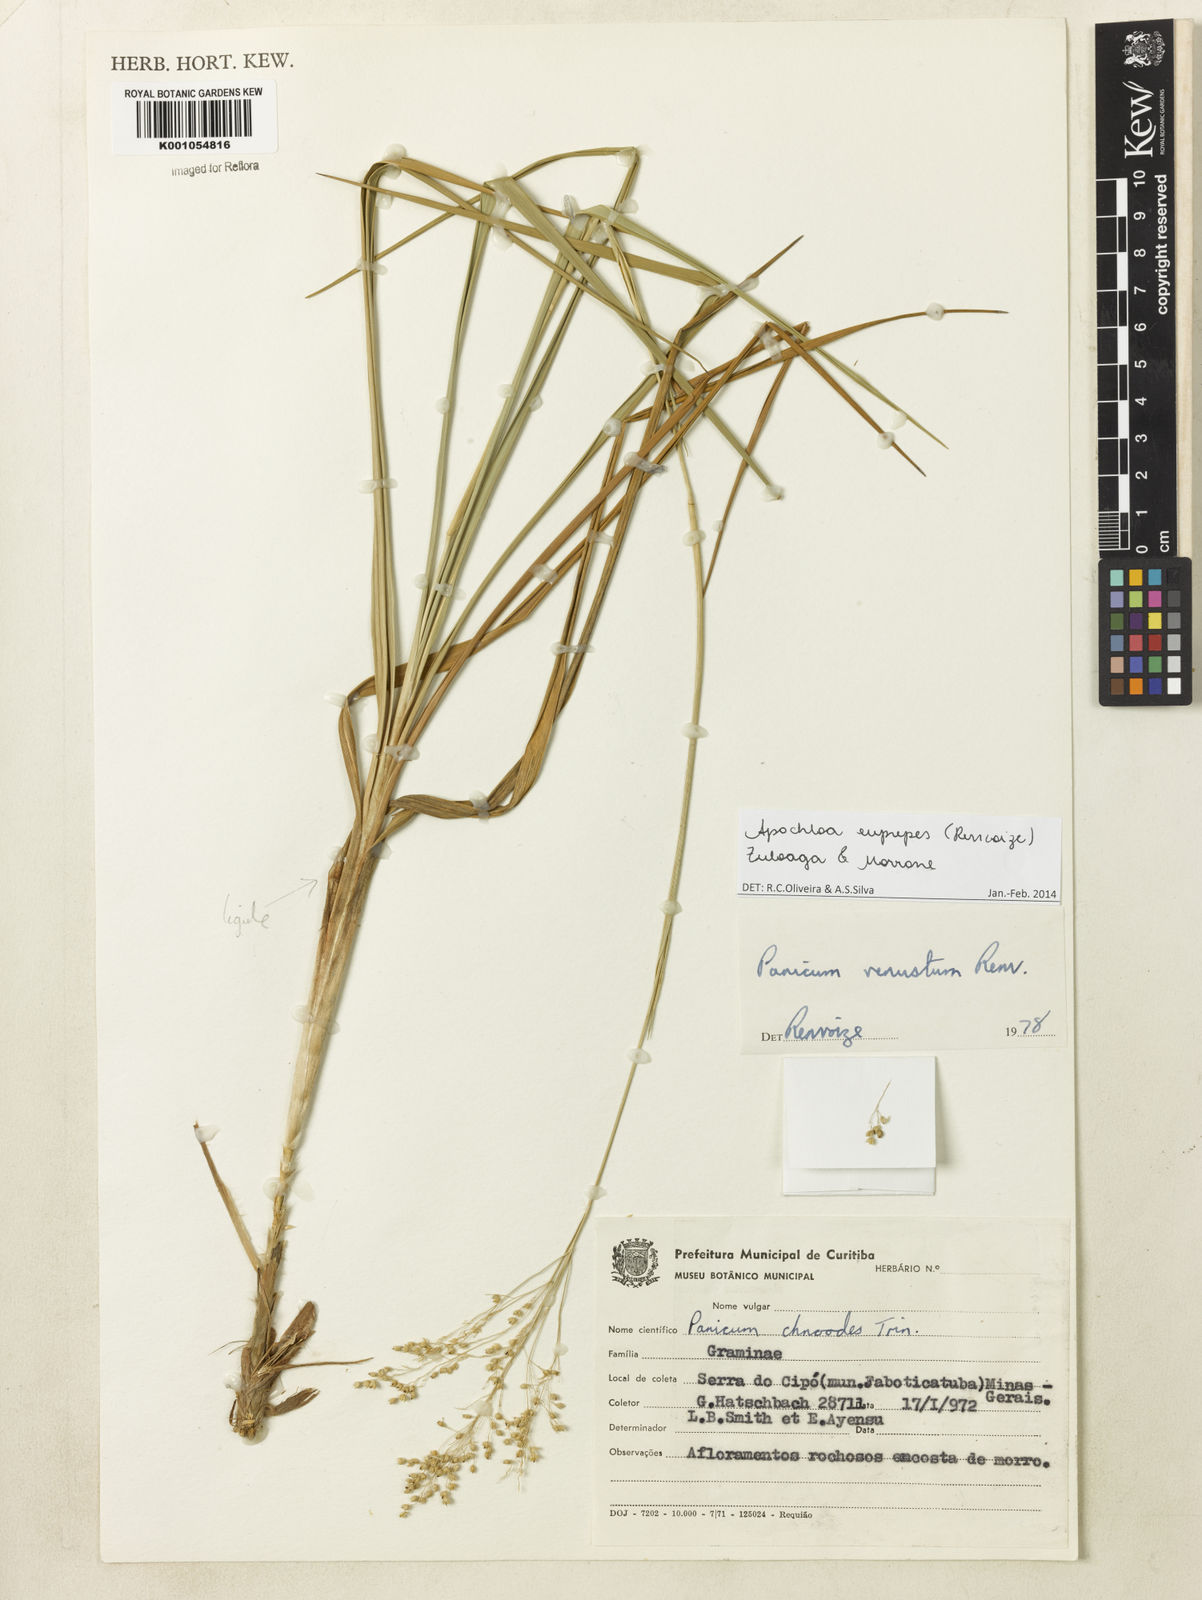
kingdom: Plantae
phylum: Tracheophyta
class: Liliopsida
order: Poales
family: Poaceae
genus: Apochloa
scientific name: Apochloa euprepes
